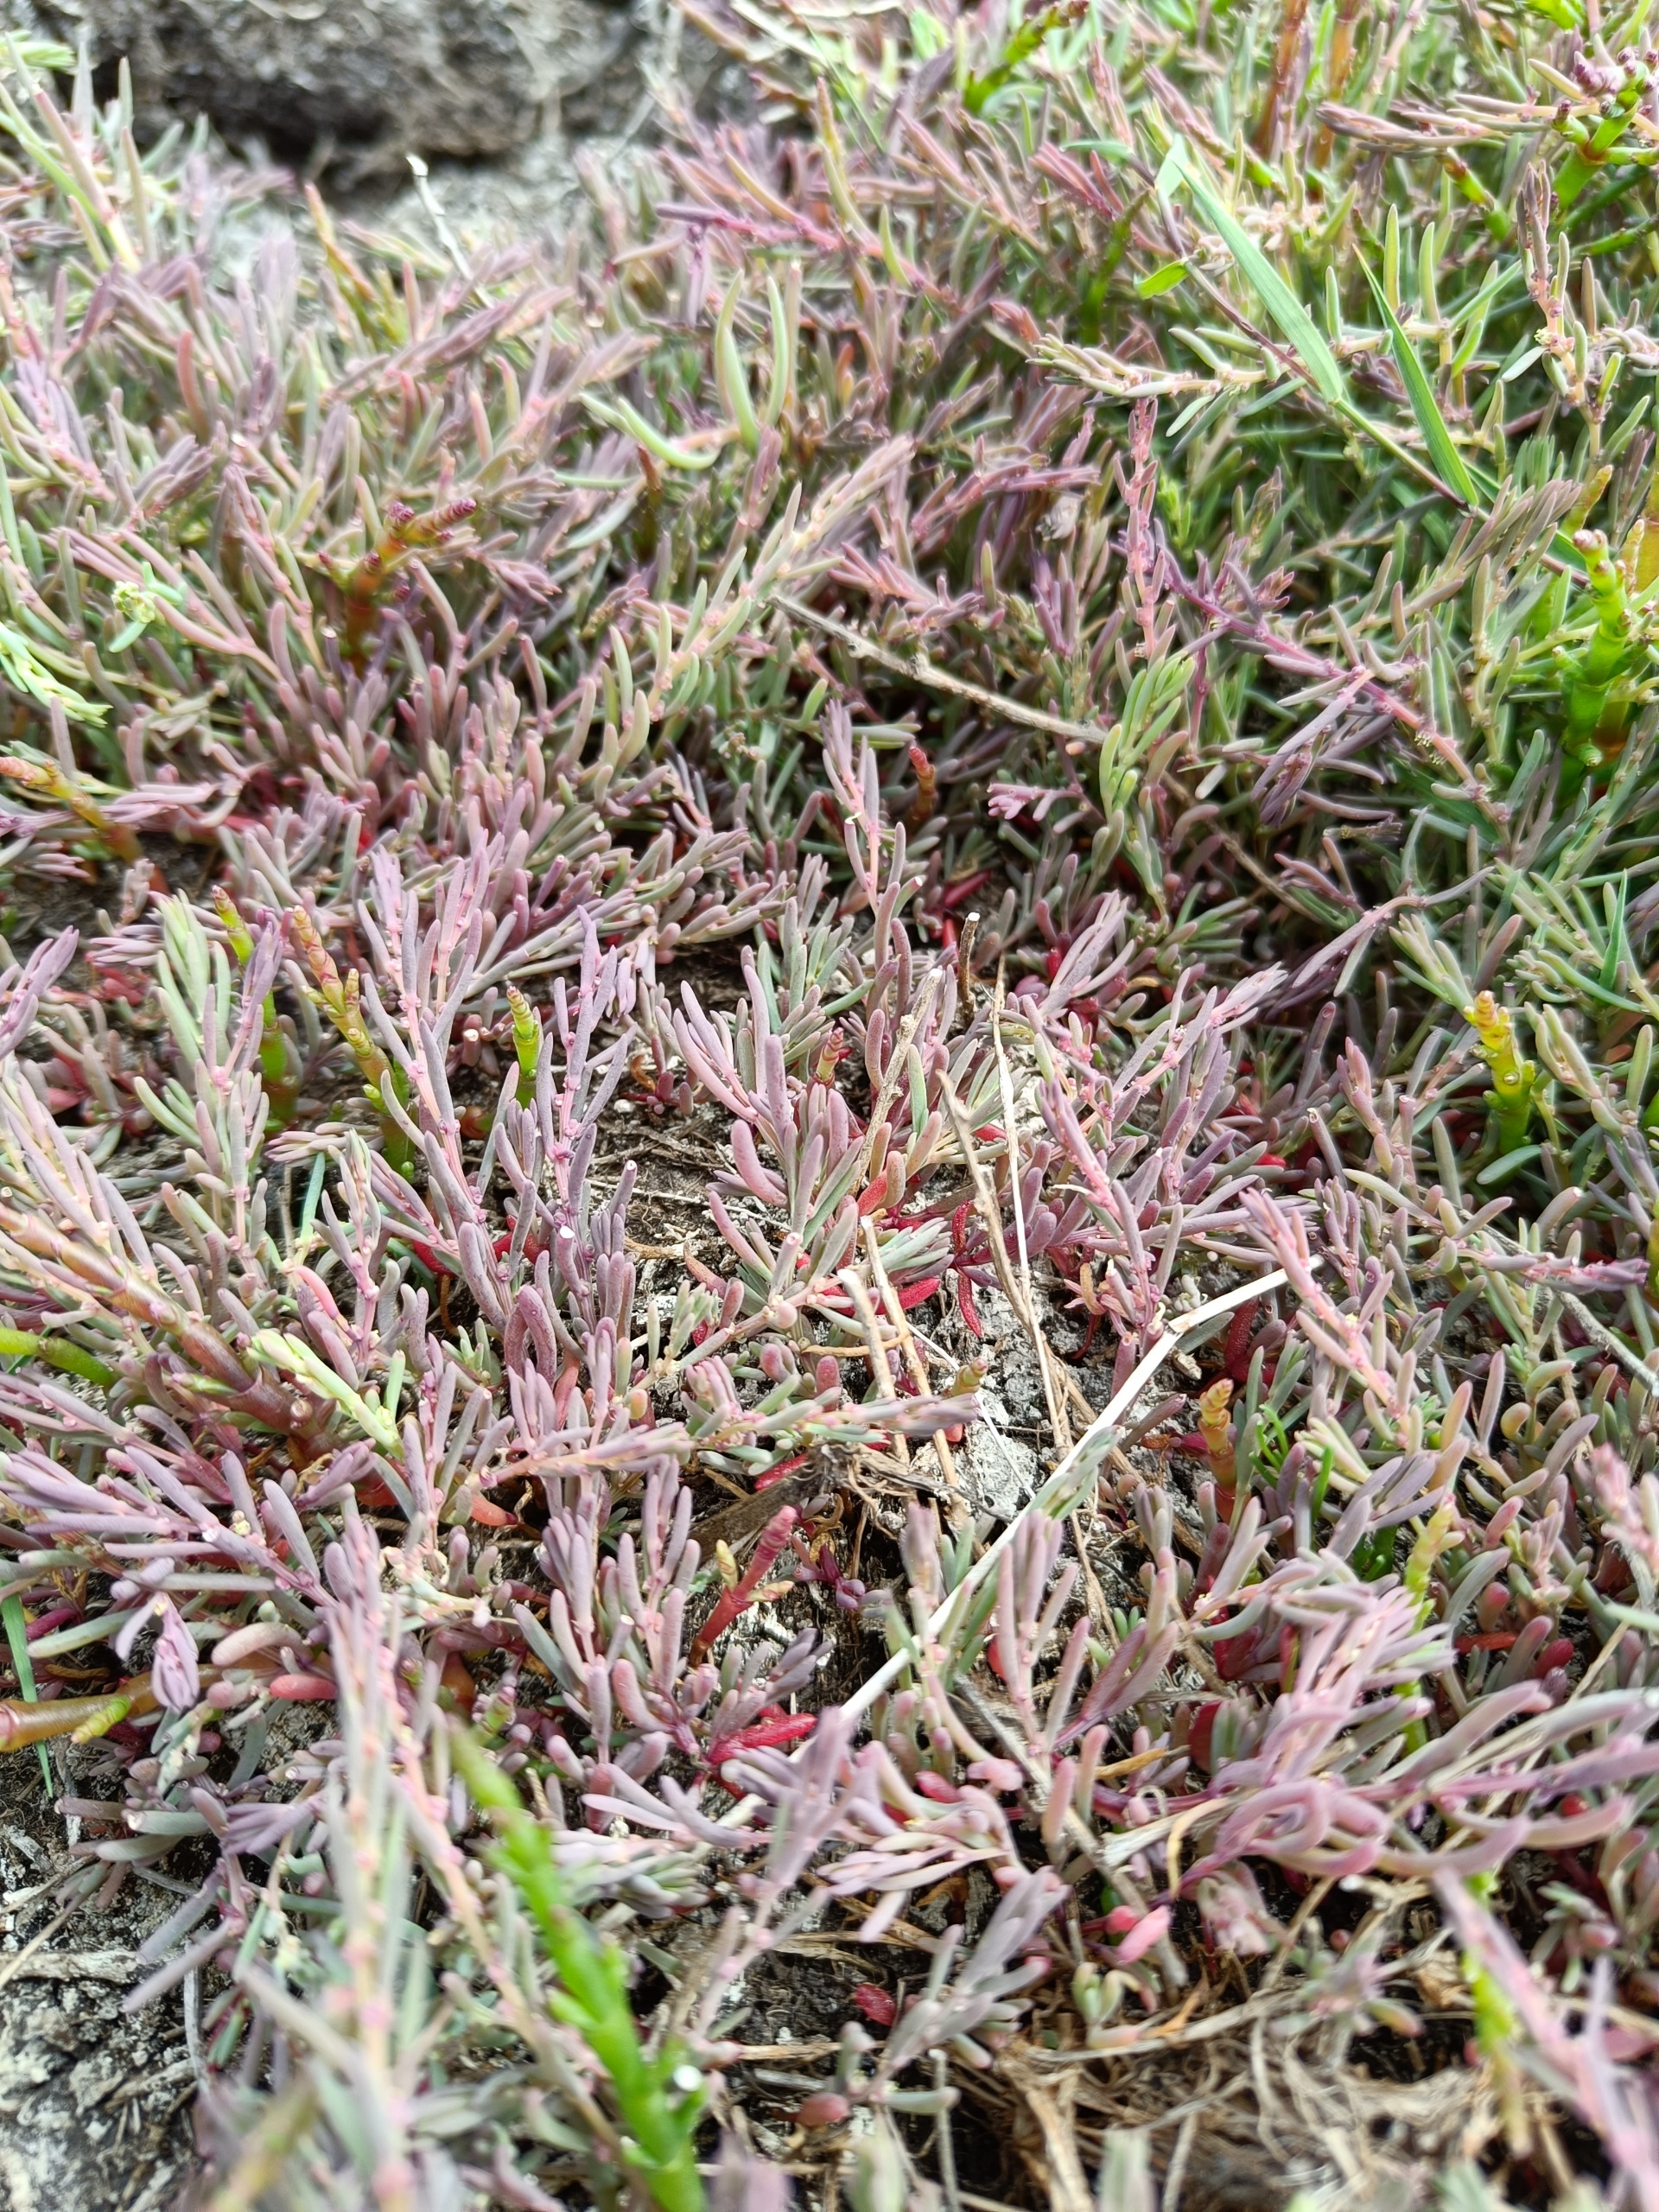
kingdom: Plantae
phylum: Tracheophyta
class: Magnoliopsida
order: Caryophyllales
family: Amaranthaceae
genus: Suaeda
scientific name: Suaeda maritima
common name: Strandgåsefod
